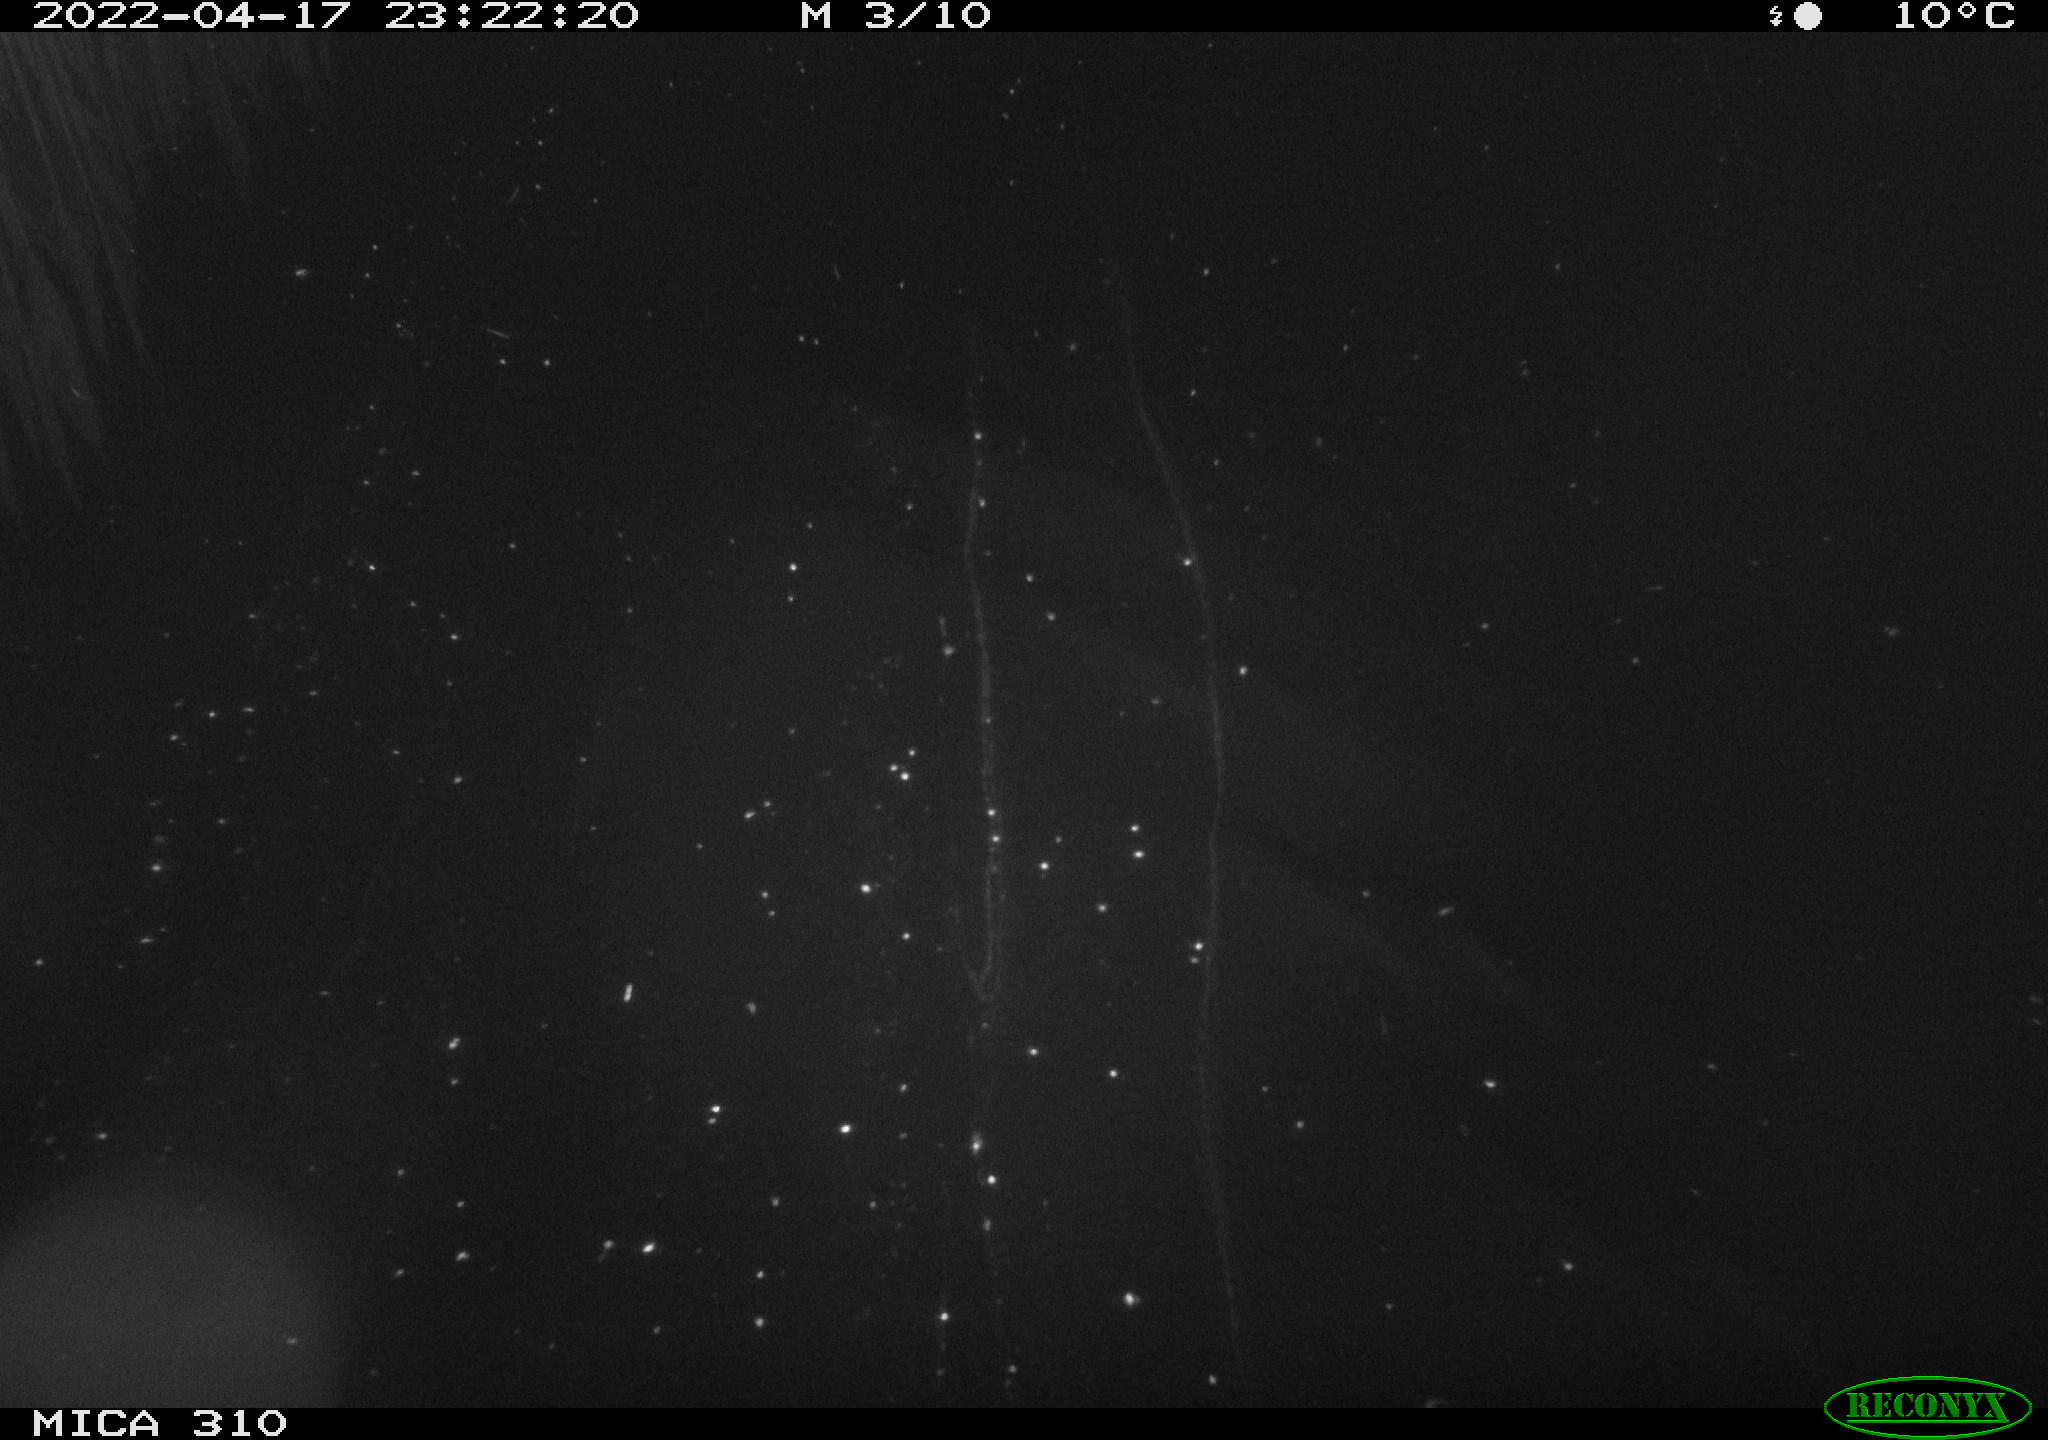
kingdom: Animalia
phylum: Chordata
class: Aves
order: Anseriformes
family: Anatidae
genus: Anas
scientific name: Anas platyrhynchos
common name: Mallard
